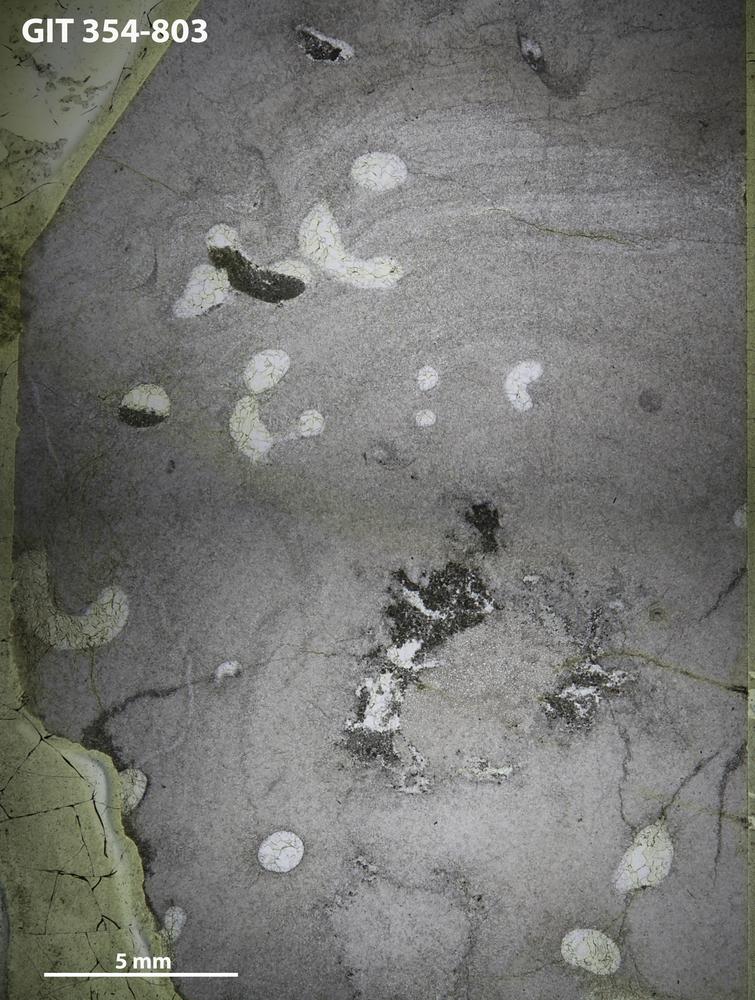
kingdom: Animalia
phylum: Porifera
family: Densastromatidae
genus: Araneosustroma
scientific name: Araneosustroma
